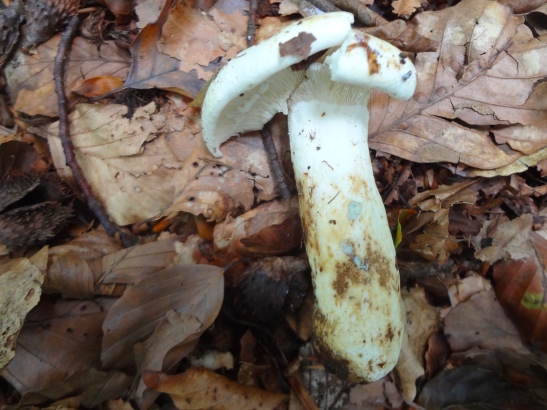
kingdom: Fungi
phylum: Basidiomycota
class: Agaricomycetes
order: Russulales
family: Russulaceae
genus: Lactifluus
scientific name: Lactifluus glaucescens
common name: grønplettet mælkehat
